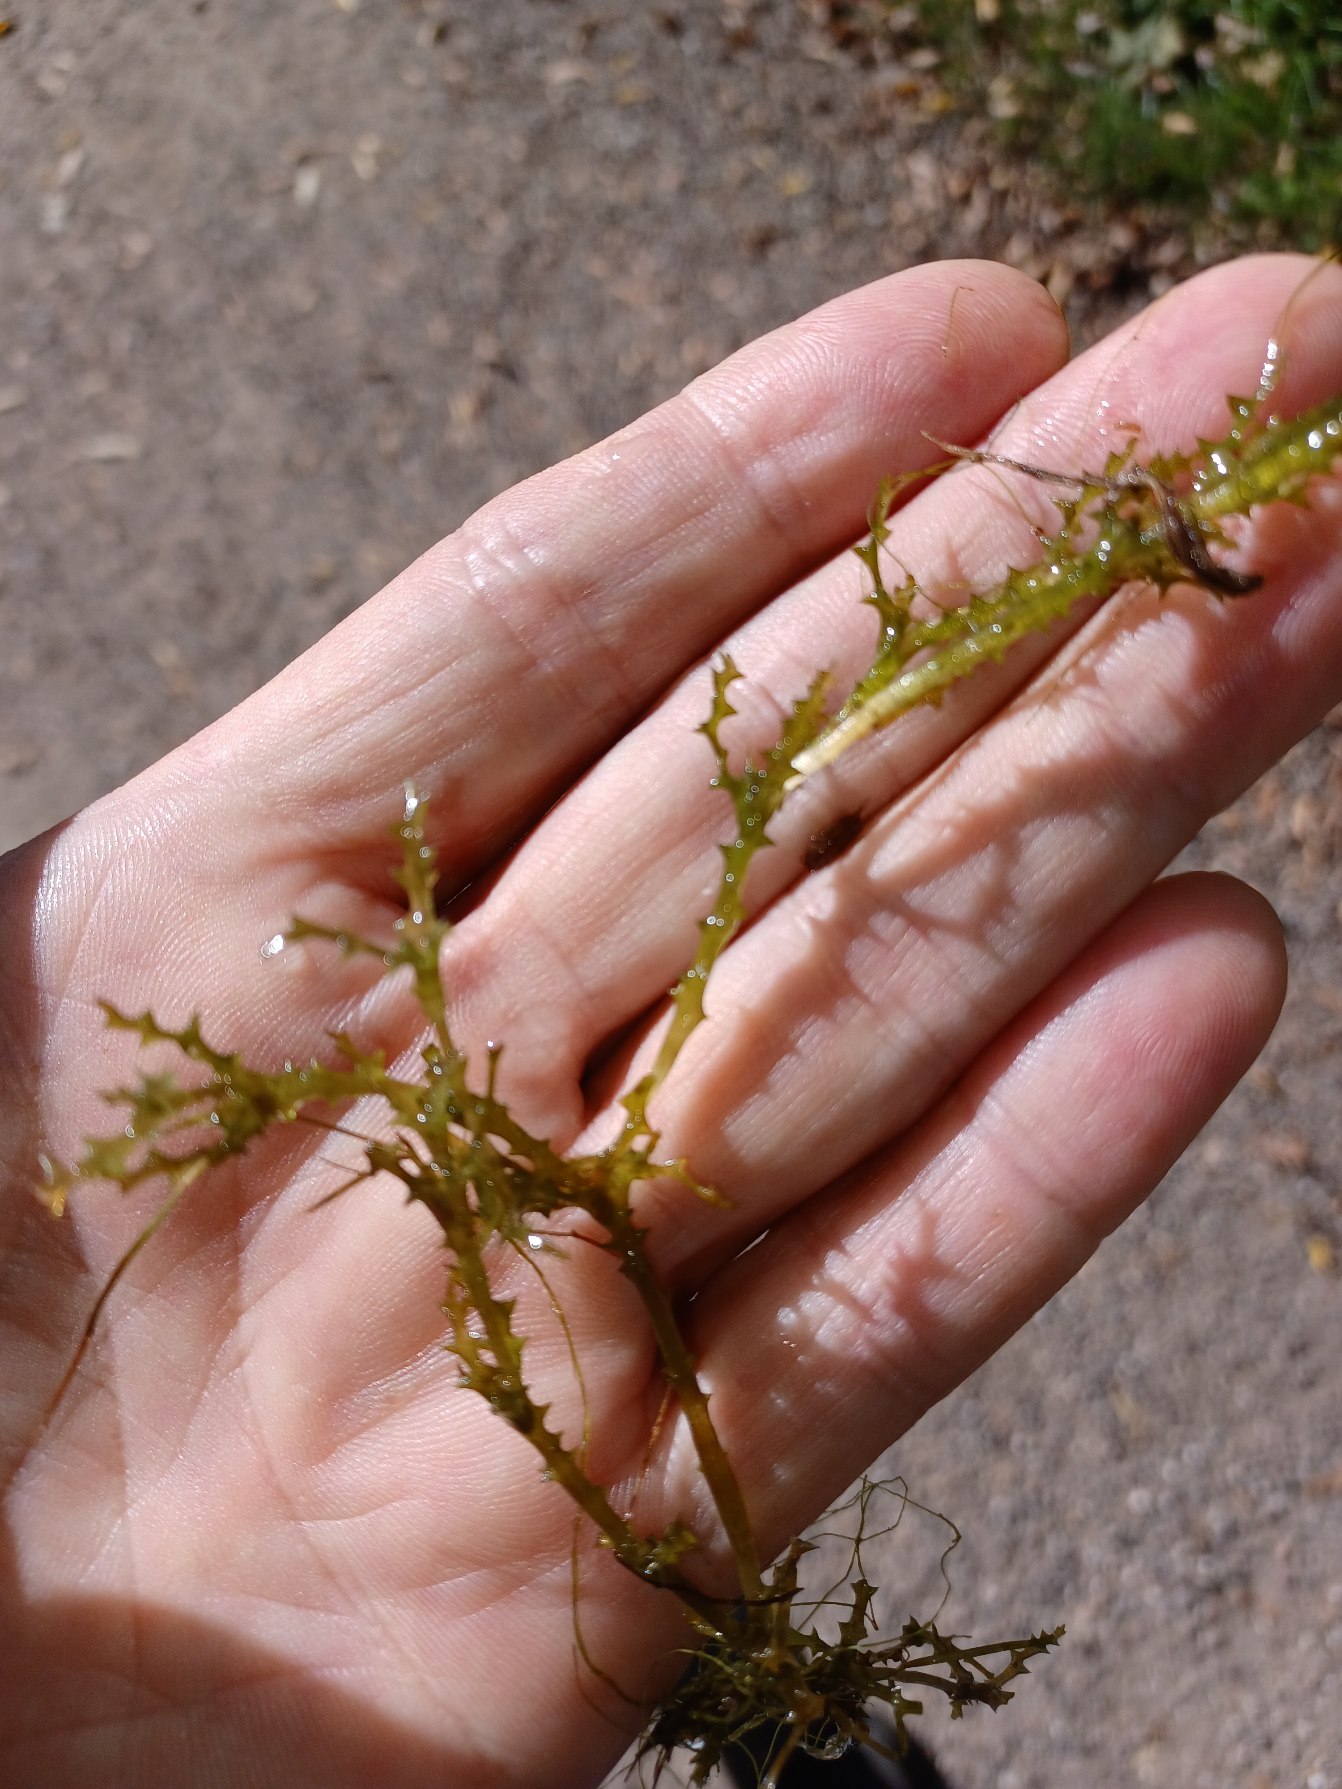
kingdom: Plantae
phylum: Tracheophyta
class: Liliopsida
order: Alismatales
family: Hydrocharitaceae
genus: Najas
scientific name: Najas marina
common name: Stor najade
